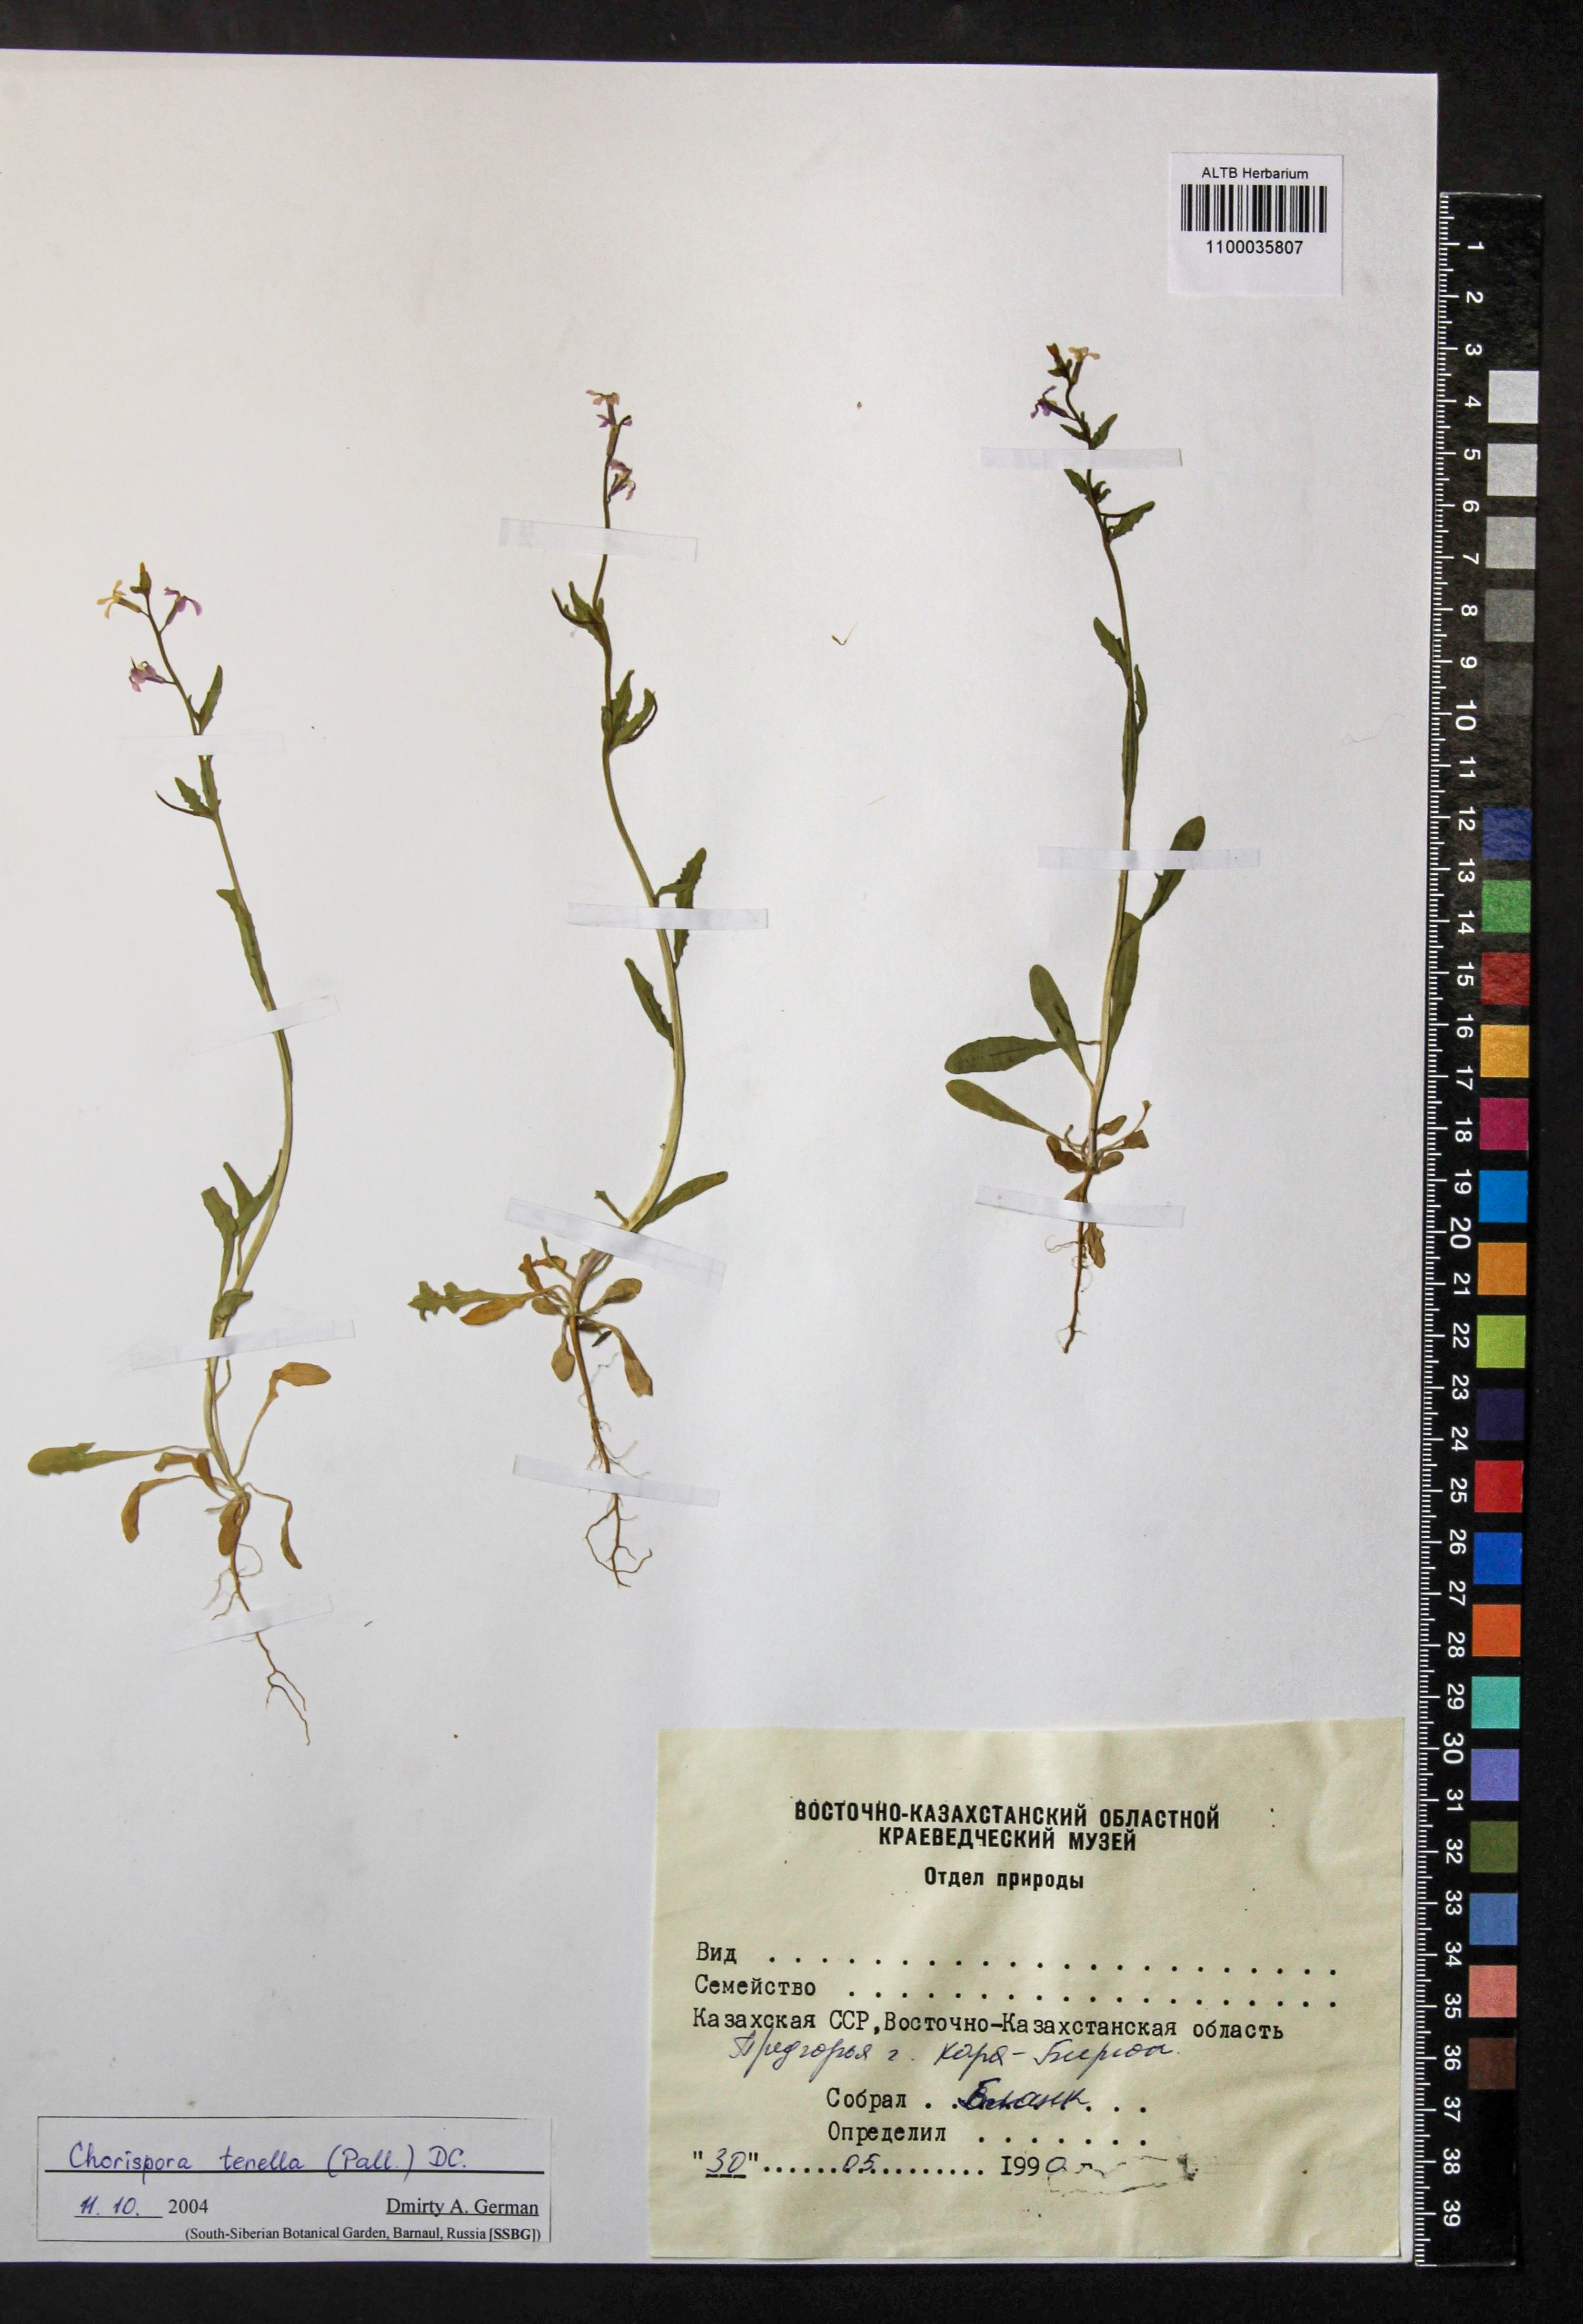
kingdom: Plantae
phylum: Tracheophyta
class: Magnoliopsida
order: Brassicales
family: Brassicaceae
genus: Chorispora
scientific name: Chorispora tenella
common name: Crossflower
